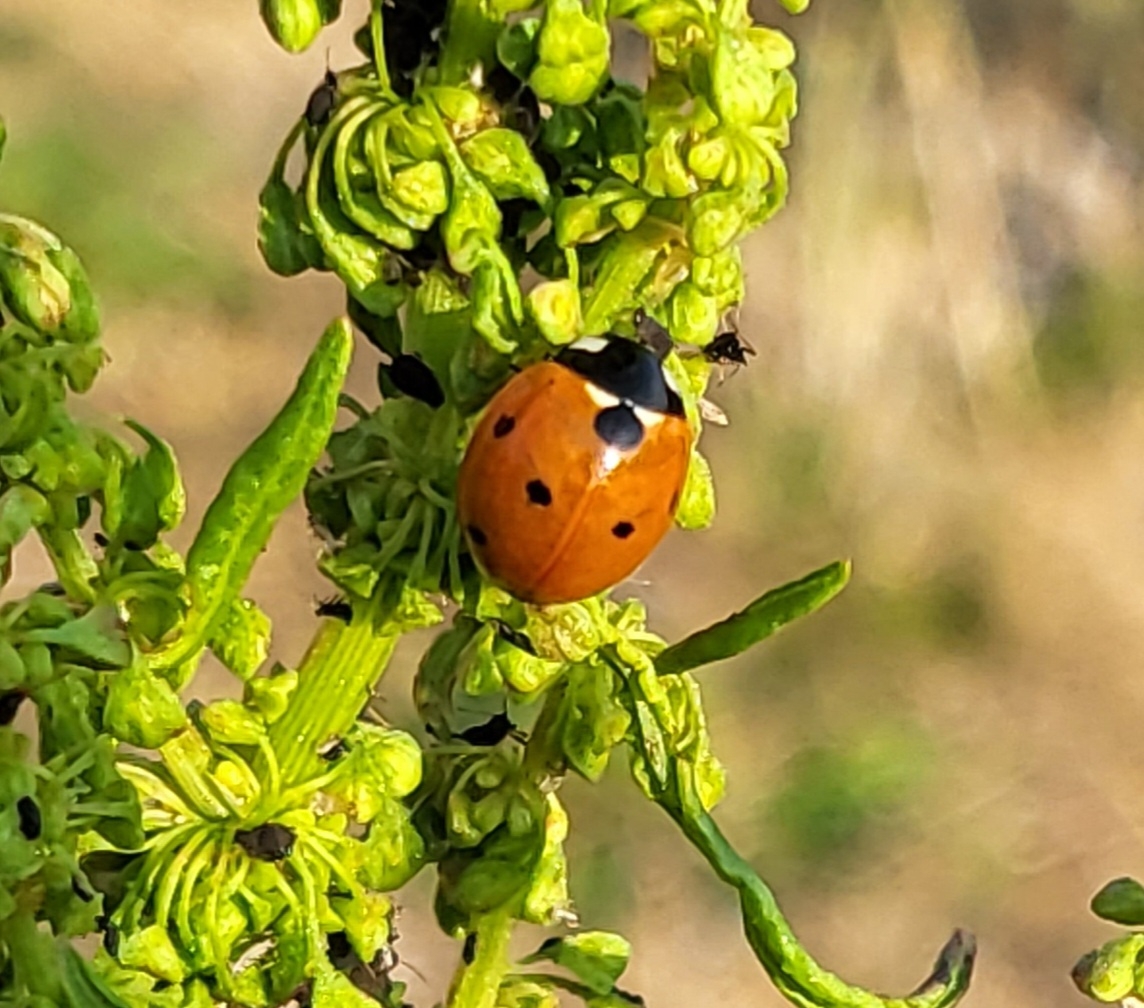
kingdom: Animalia
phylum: Arthropoda
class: Insecta
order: Coleoptera
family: Coccinellidae
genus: Coccinella
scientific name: Coccinella septempunctata
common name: Syvplettet mariehøne
